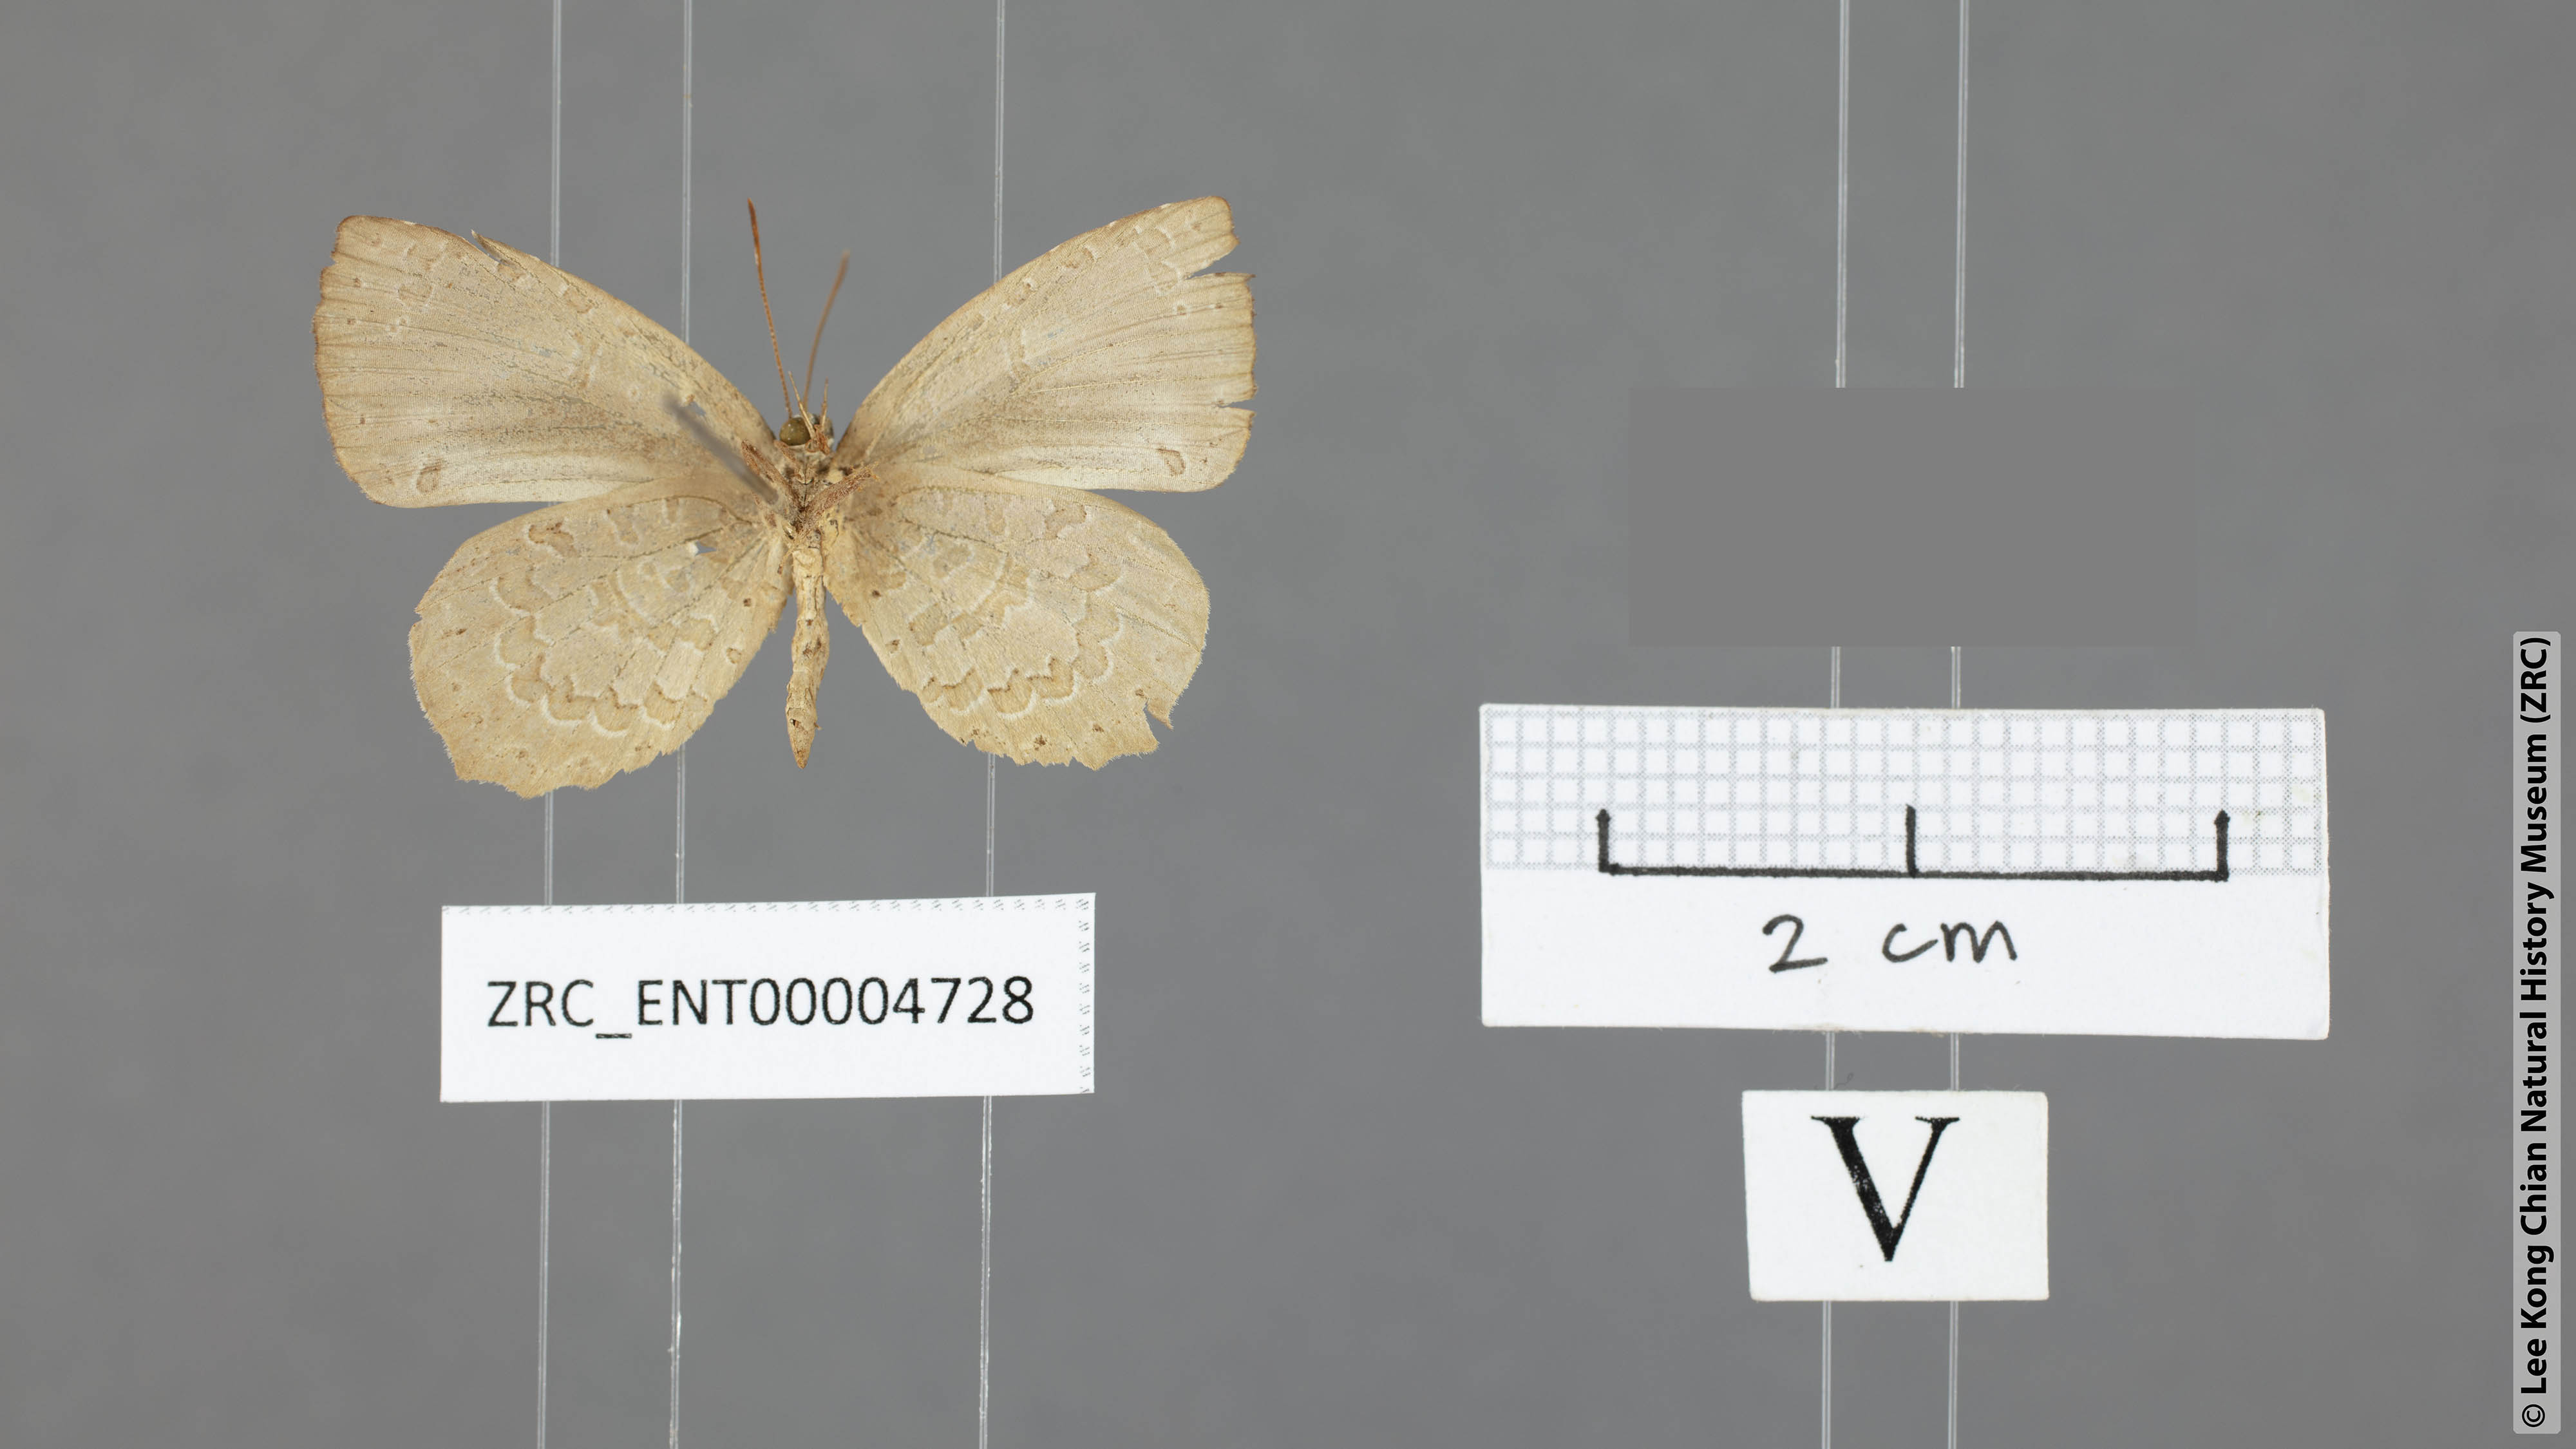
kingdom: Animalia
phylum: Arthropoda
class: Insecta
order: Lepidoptera
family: Lycaenidae
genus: Miletus
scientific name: Miletus chinensis
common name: Common brownie
